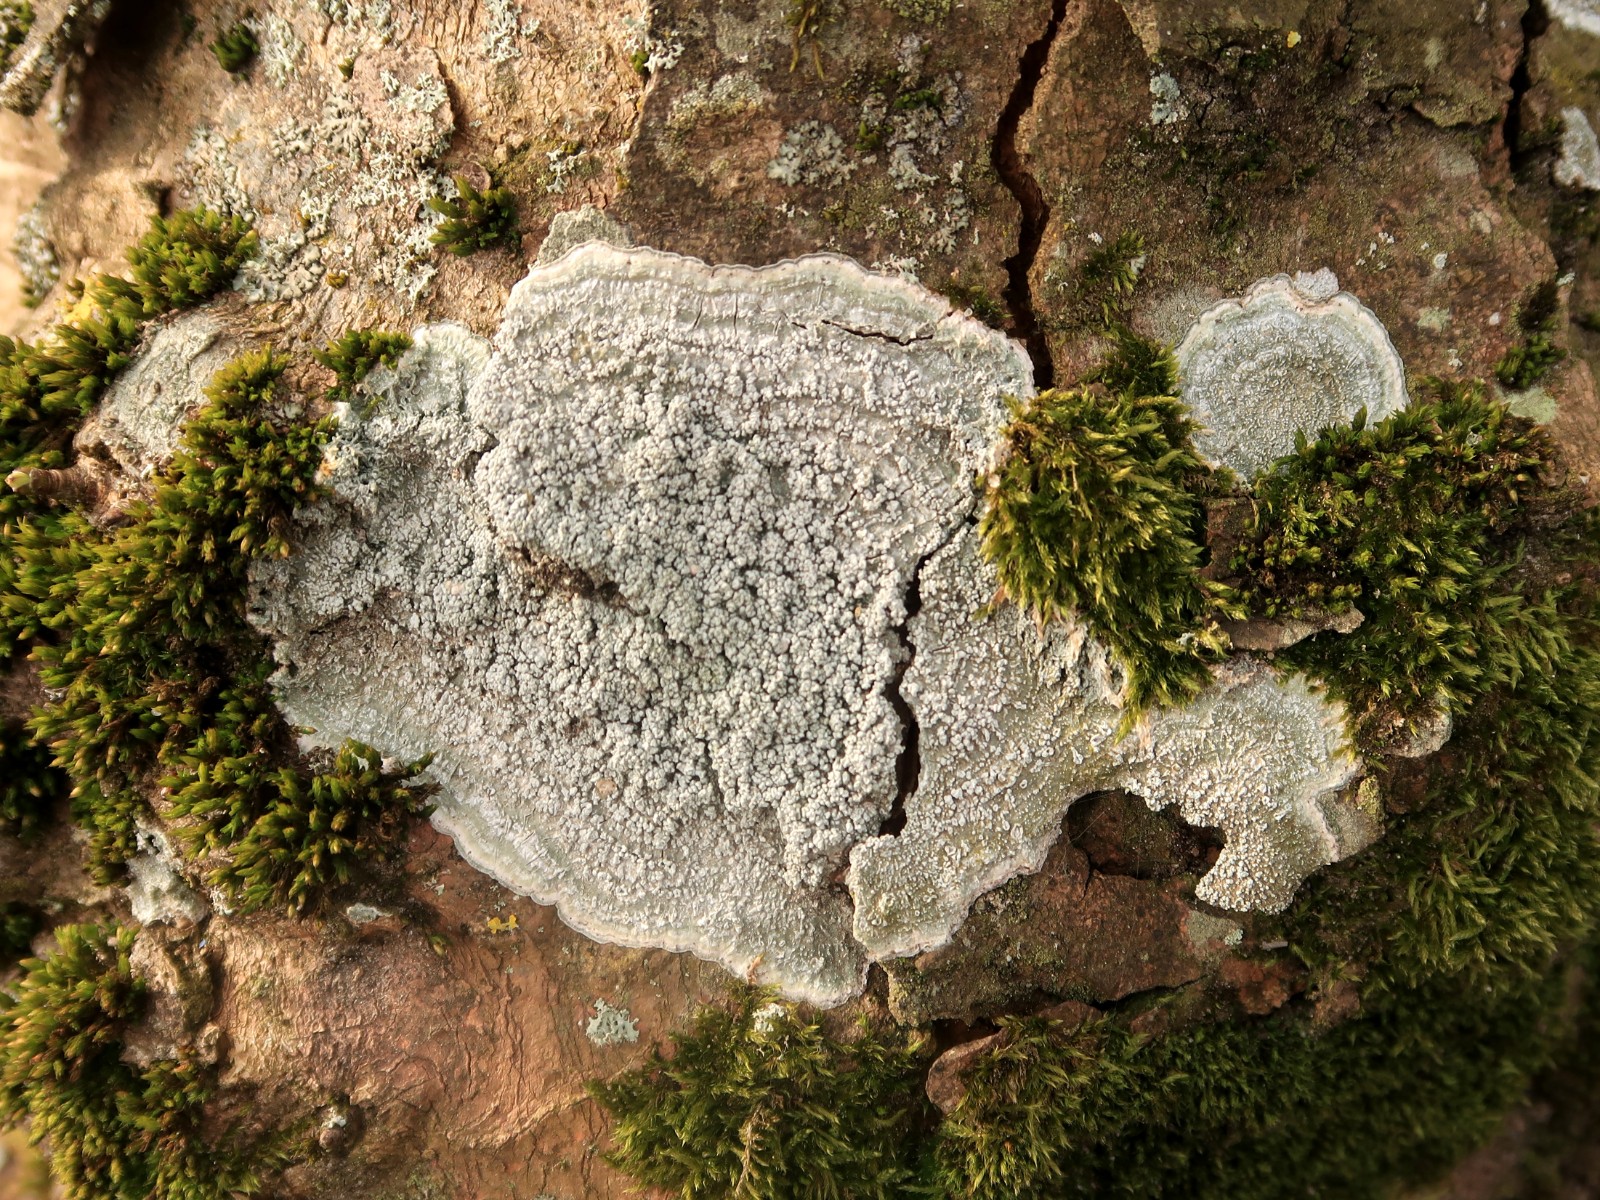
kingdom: Fungi
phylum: Ascomycota
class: Lecanoromycetes
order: Pertusariales
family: Pertusariaceae
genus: Lepra
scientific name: Lepra albescens
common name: hvidmelet prikvortelav
